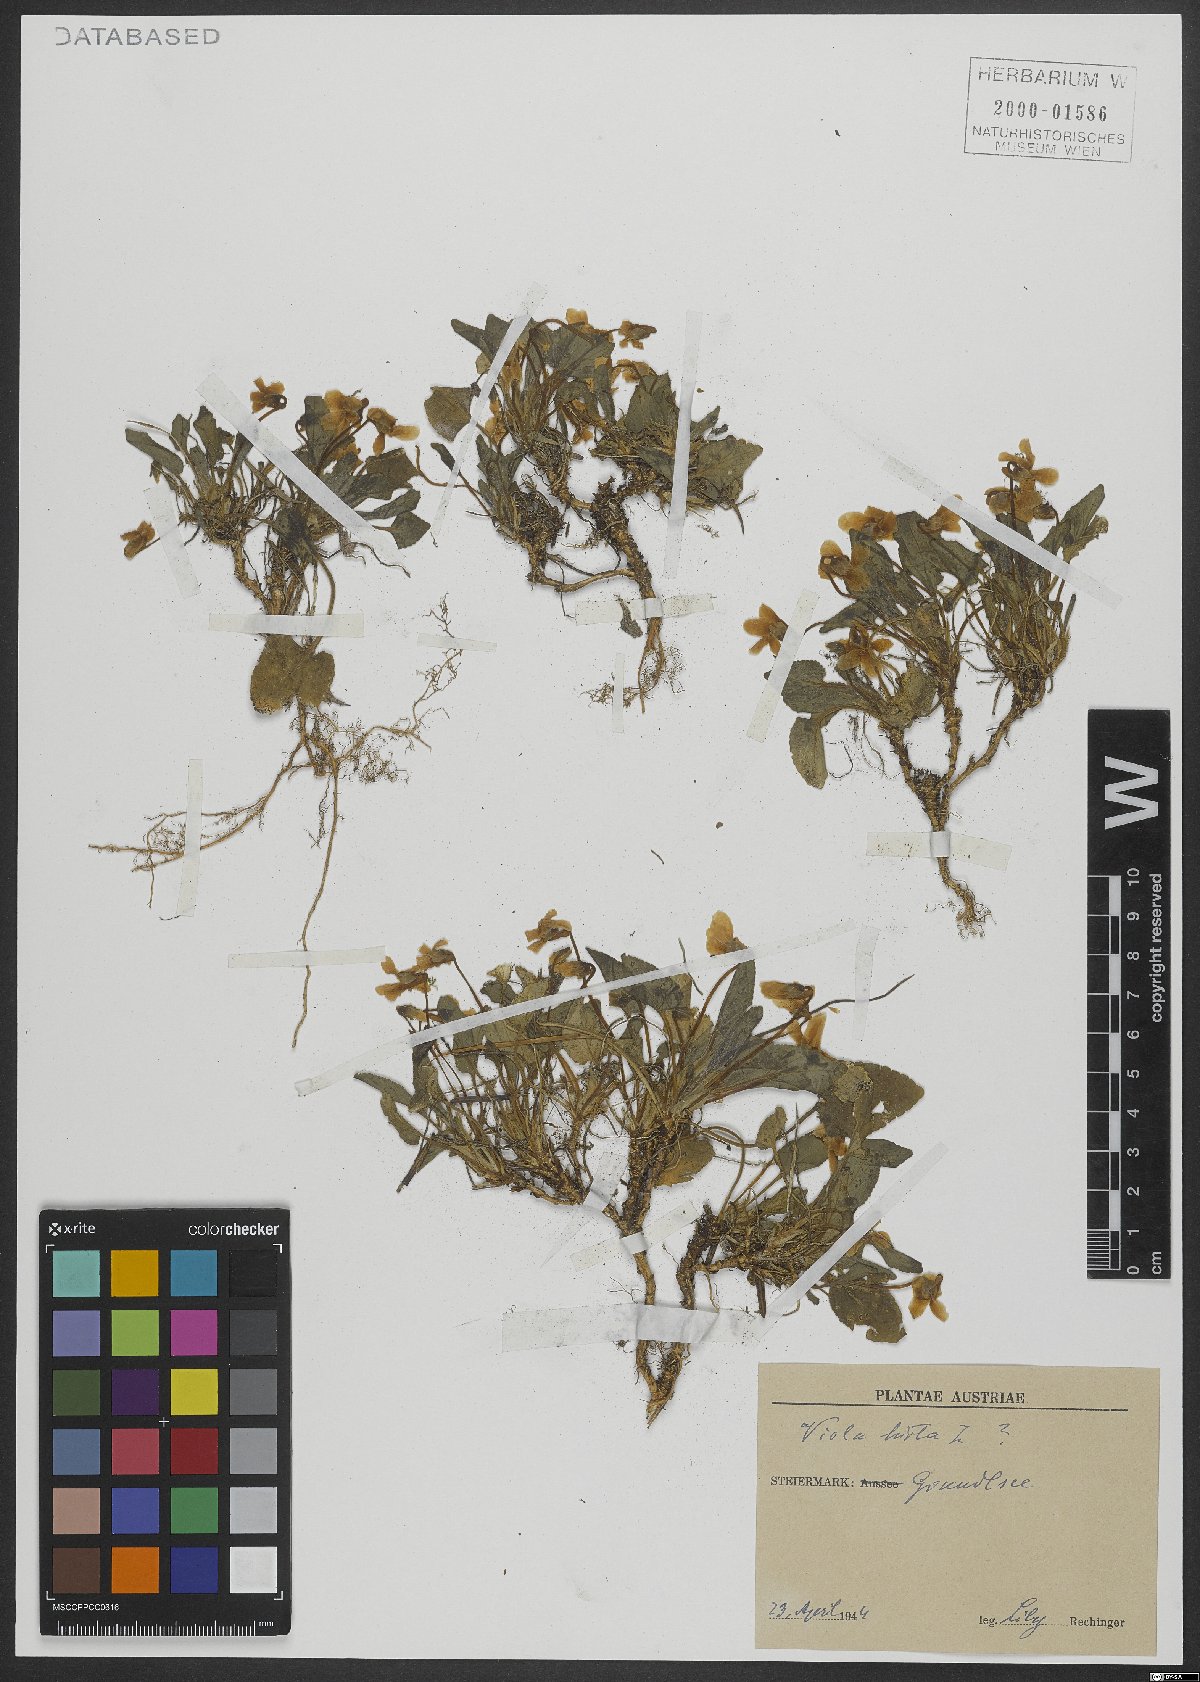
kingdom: Plantae
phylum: Tracheophyta
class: Magnoliopsida
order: Malpighiales
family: Violaceae
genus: Viola
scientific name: Viola hirta
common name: Hairy violet
